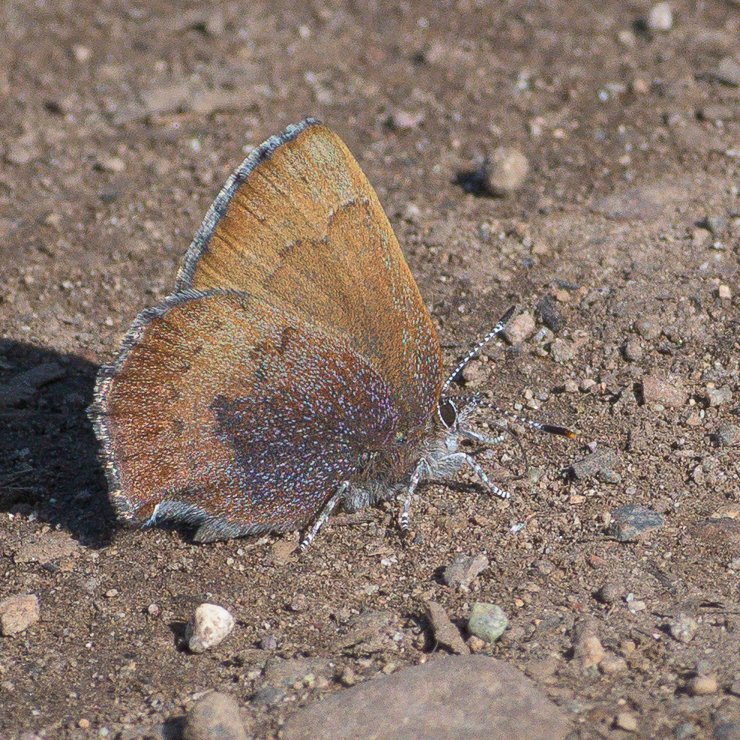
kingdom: Animalia
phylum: Arthropoda
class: Insecta
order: Lepidoptera
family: Lycaenidae
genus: Incisalia
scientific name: Incisalia irioides
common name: Brown Elfin
